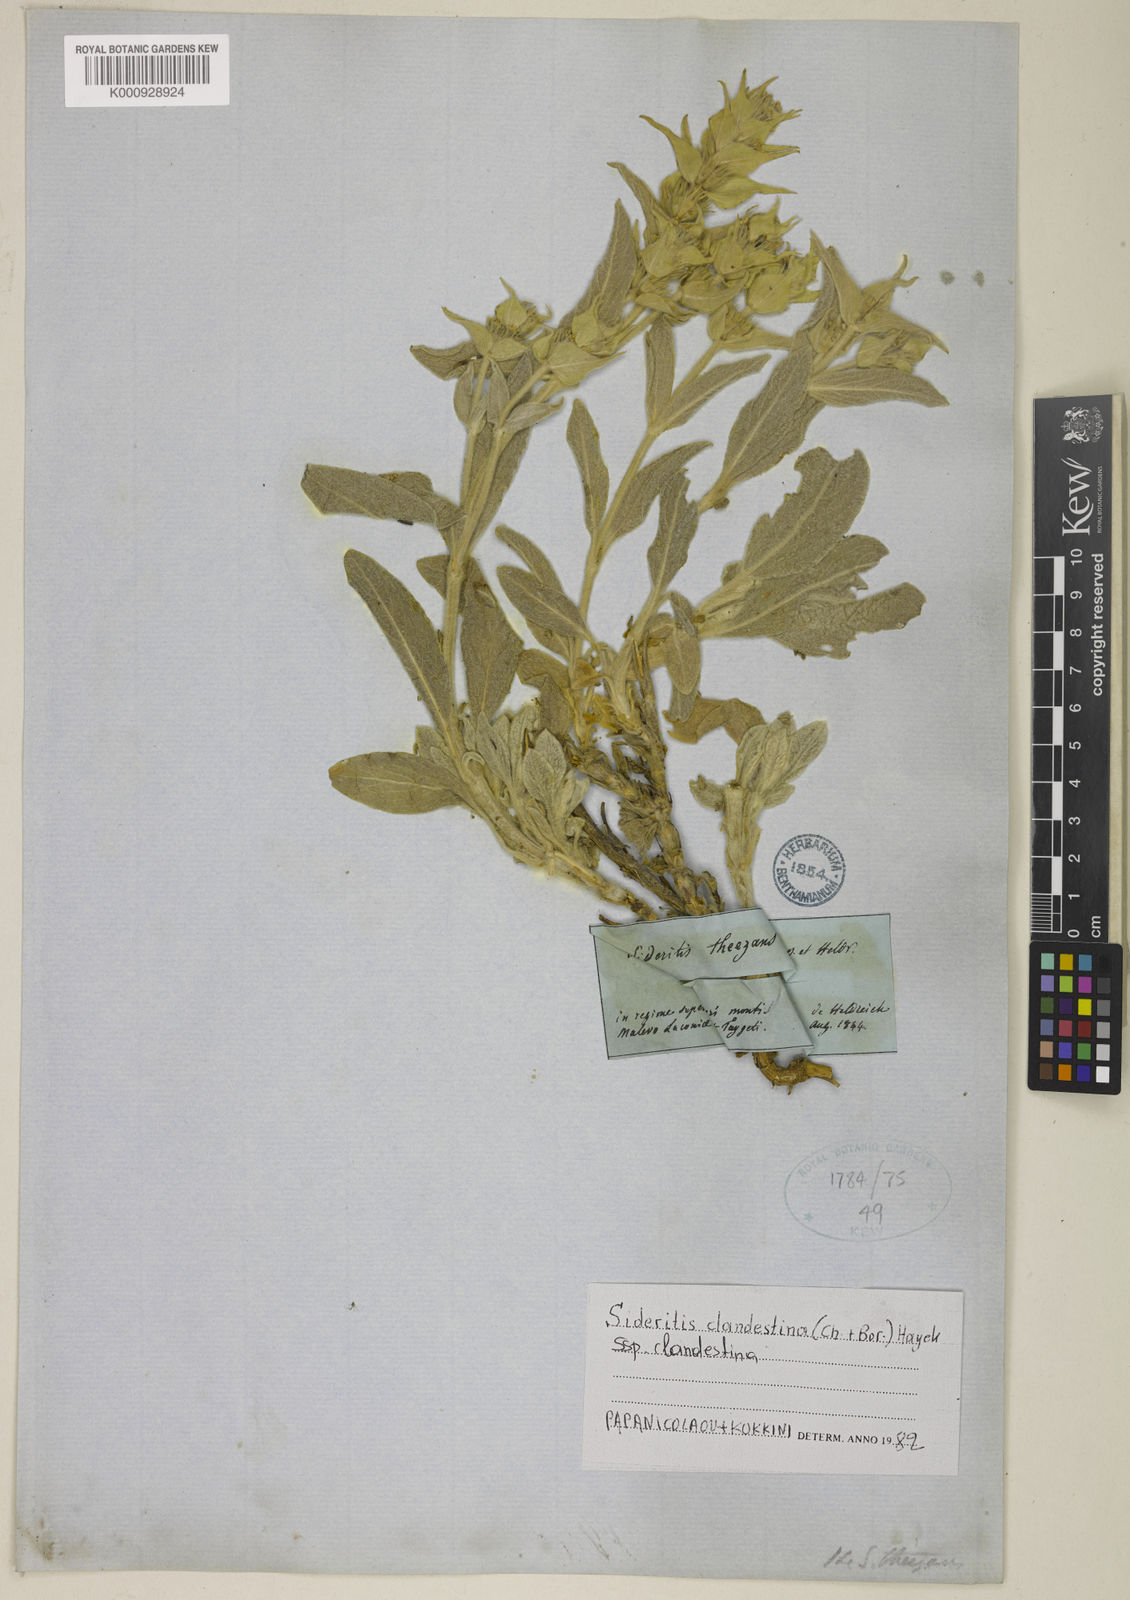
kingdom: Plantae
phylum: Tracheophyta
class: Magnoliopsida
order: Lamiales
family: Lamiaceae
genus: Sideritis
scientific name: Sideritis clandestina
